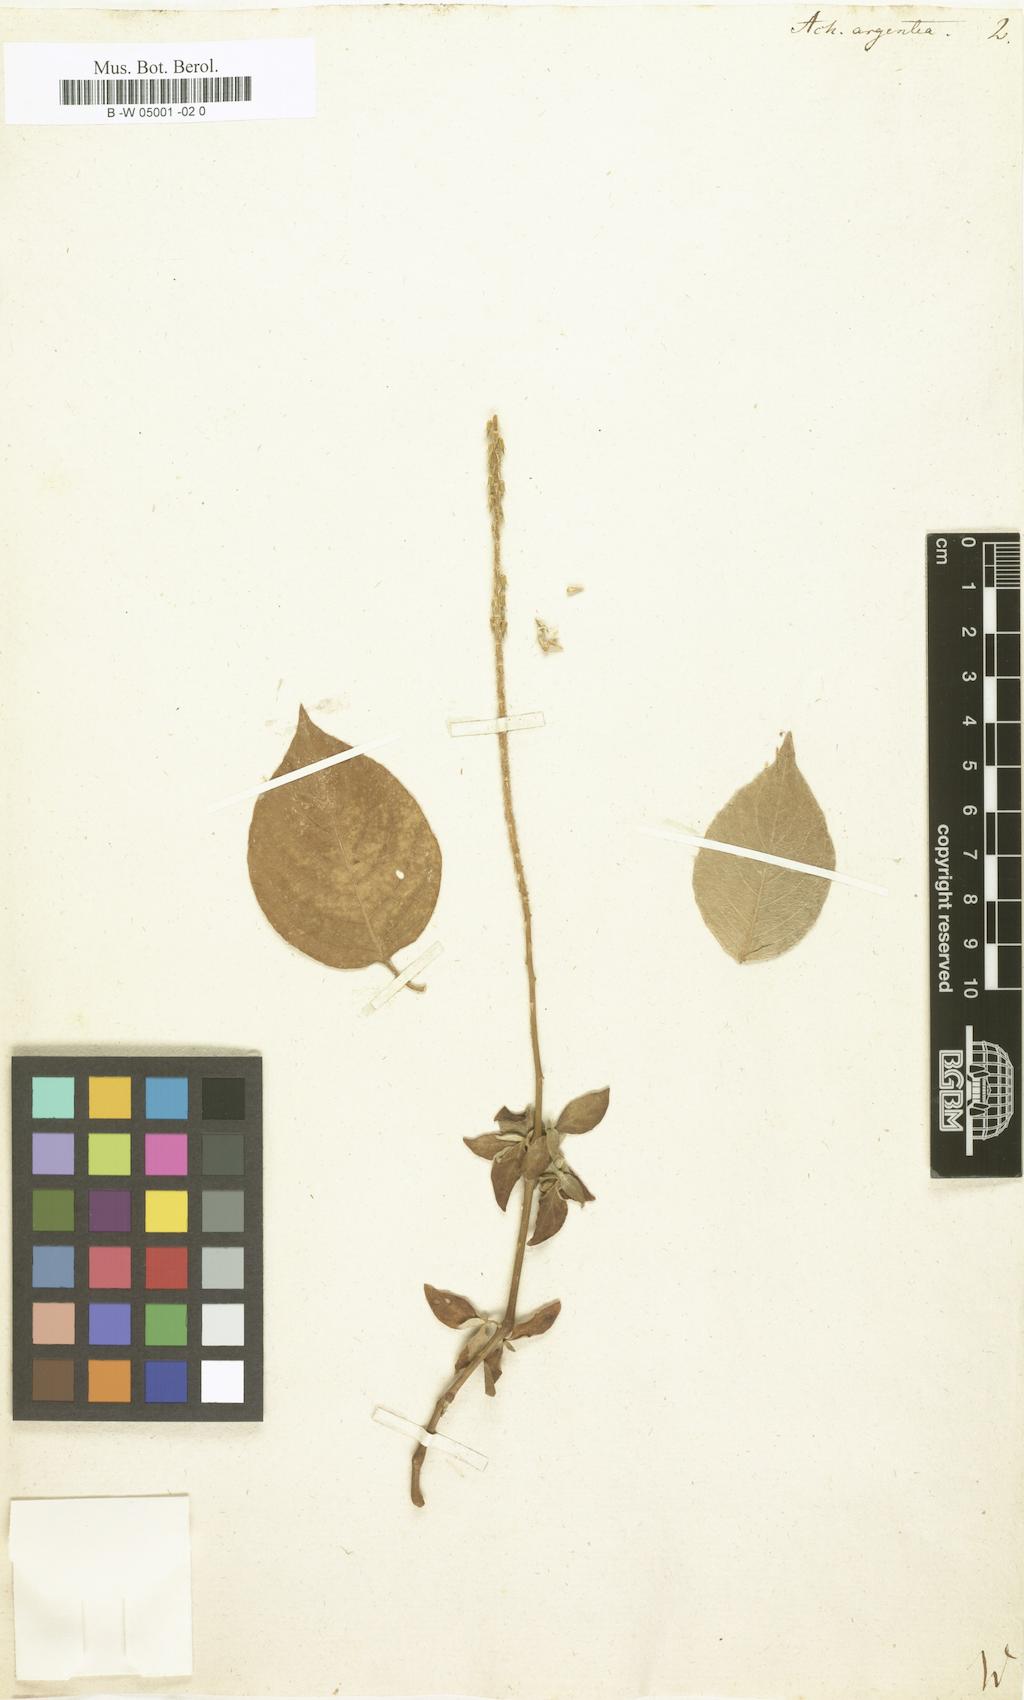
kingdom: Plantae
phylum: Tracheophyta
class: Magnoliopsida
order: Caryophyllales
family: Amaranthaceae
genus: Achyranthes
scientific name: Achyranthes sicula
